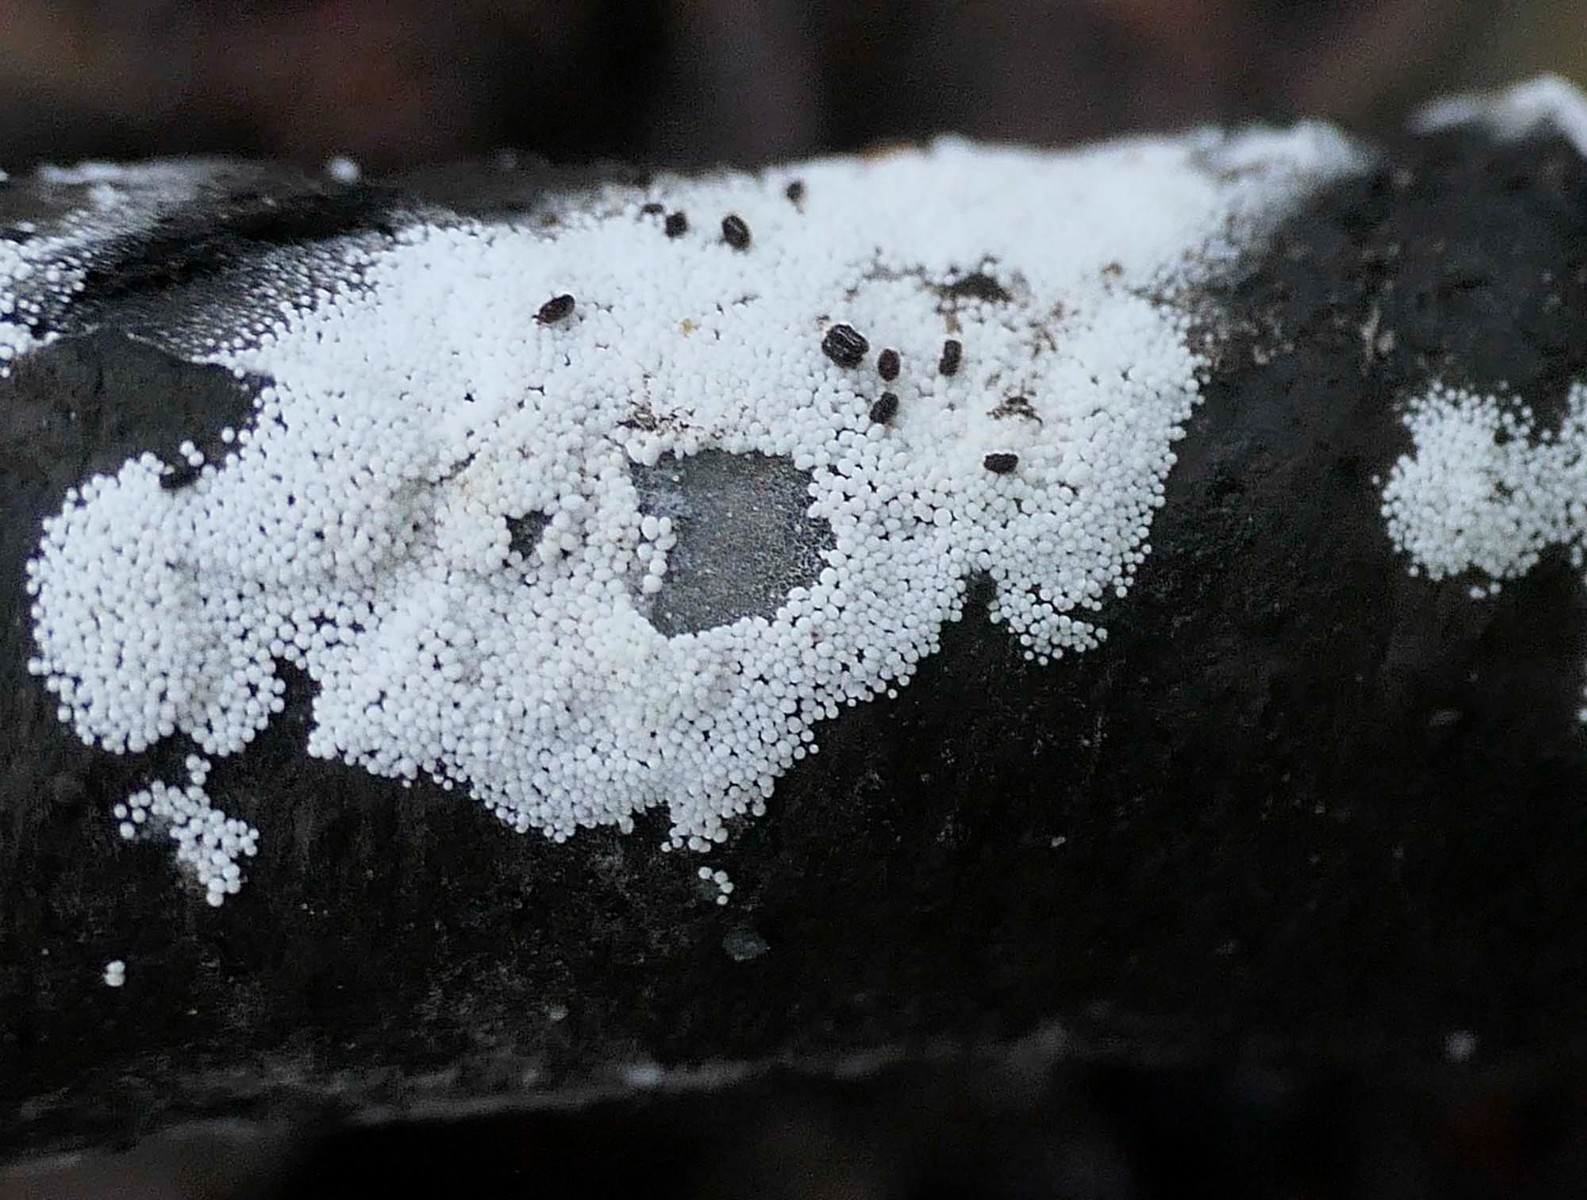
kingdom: Fungi
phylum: Basidiomycota
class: Agaricomycetes
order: Polyporales
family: Meruliaceae
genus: Bulbillomyces
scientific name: Bulbillomyces farinosus
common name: æg-kalkskind
